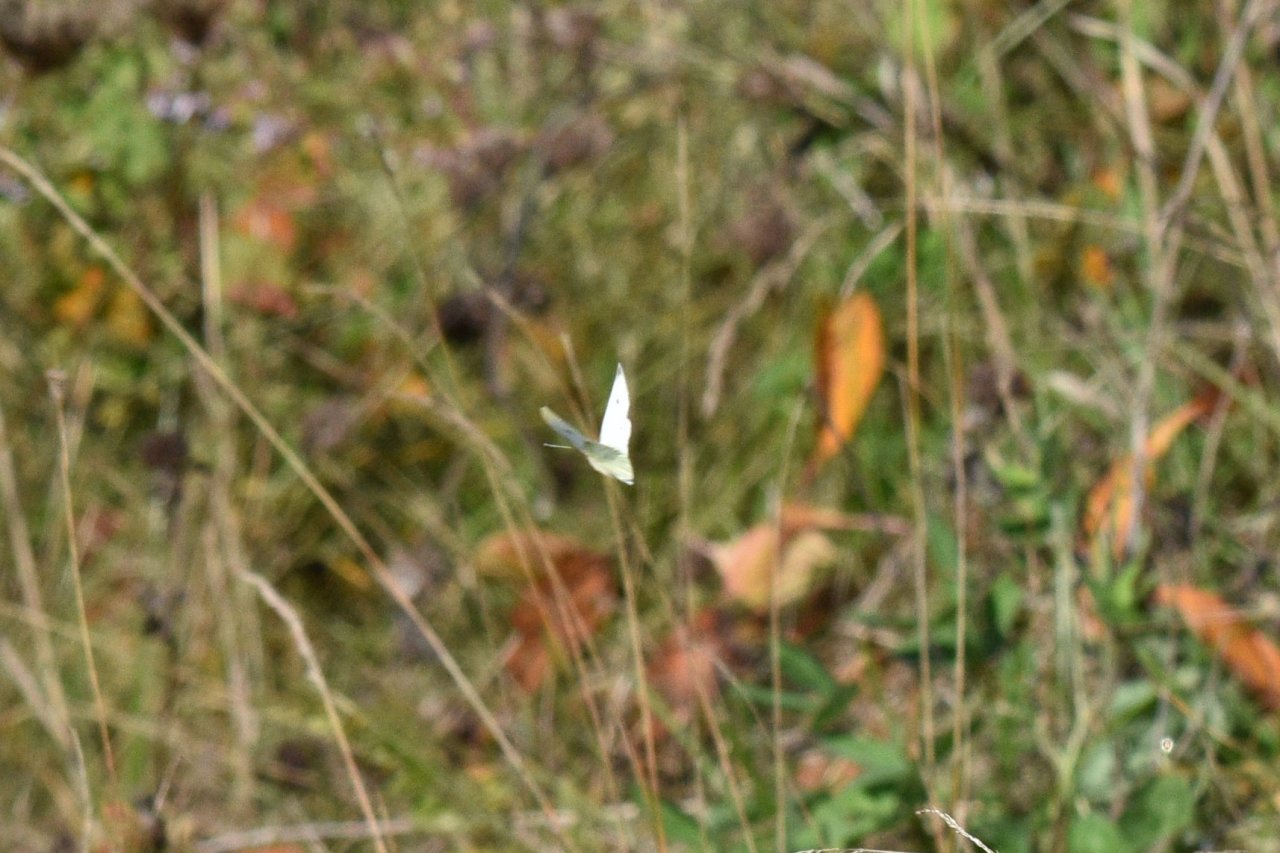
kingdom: Animalia
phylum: Arthropoda
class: Insecta
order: Lepidoptera
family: Pieridae
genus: Pieris
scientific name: Pieris rapae
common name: Cabbage White
